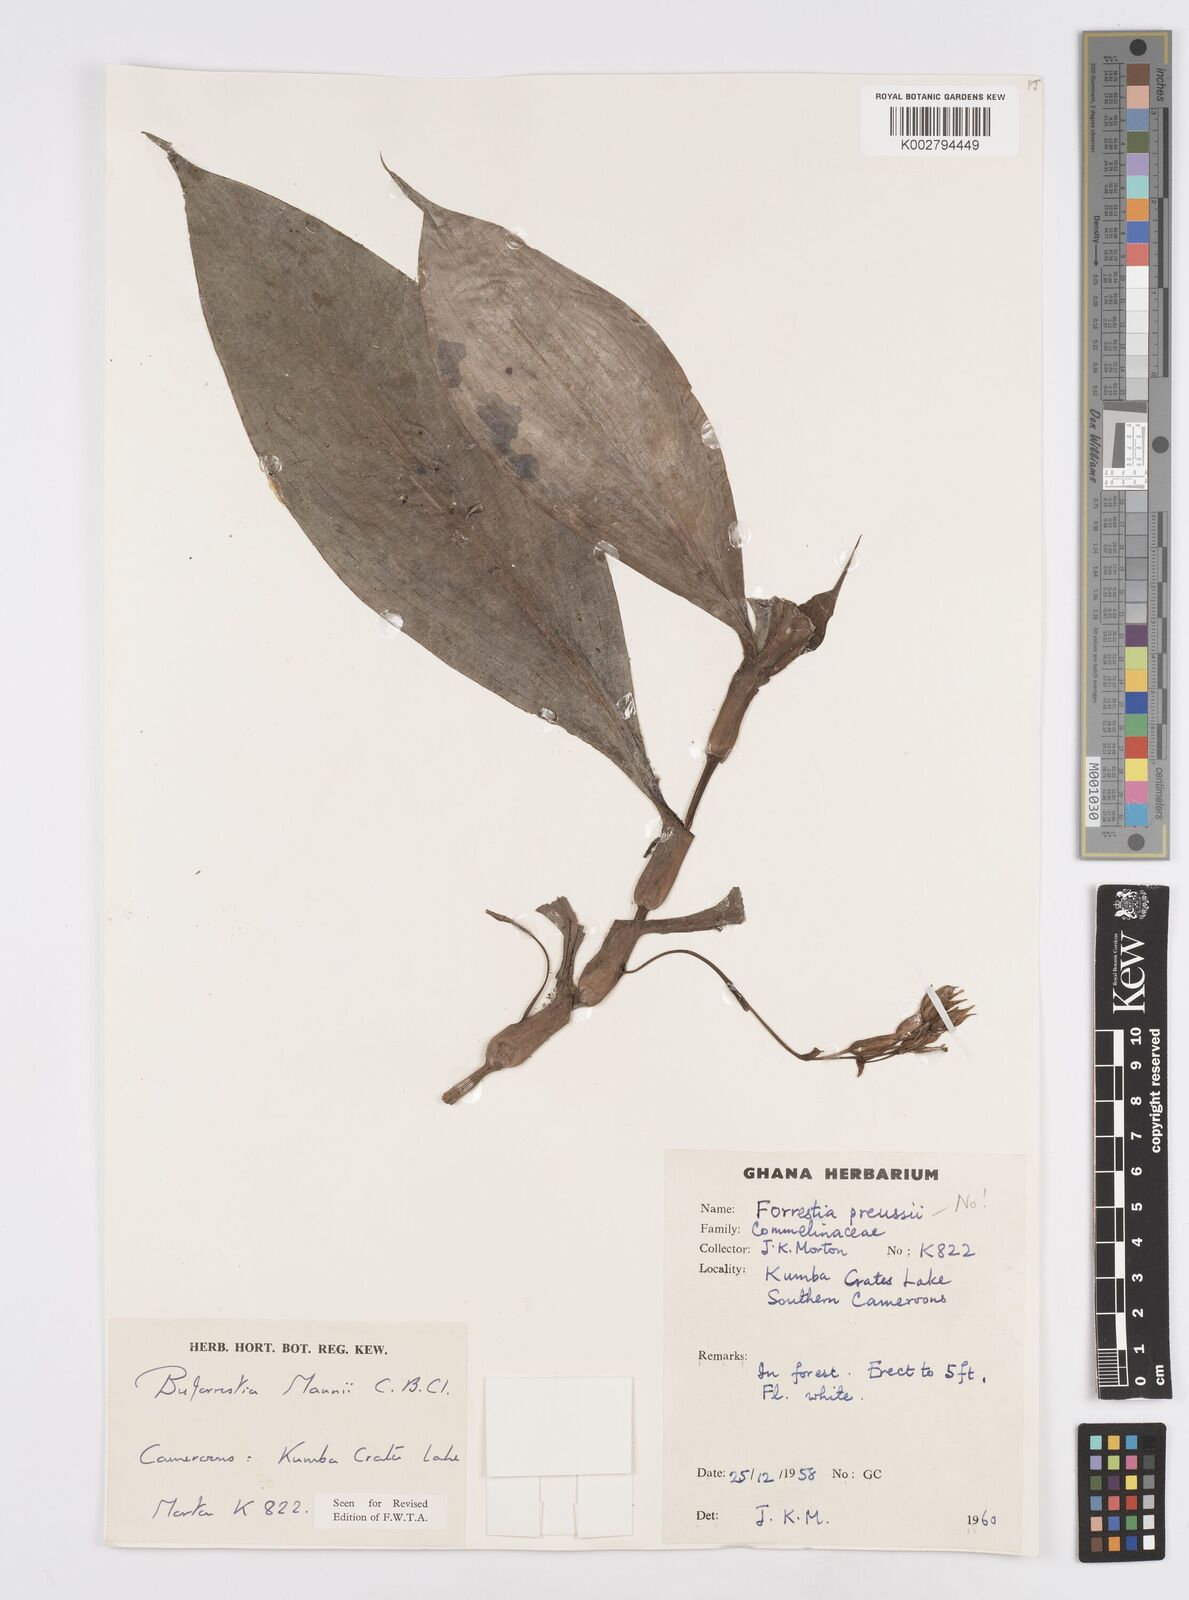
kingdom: Plantae
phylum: Tracheophyta
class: Liliopsida
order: Commelinales
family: Commelinaceae
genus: Buforrestia
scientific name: Buforrestia mannii
